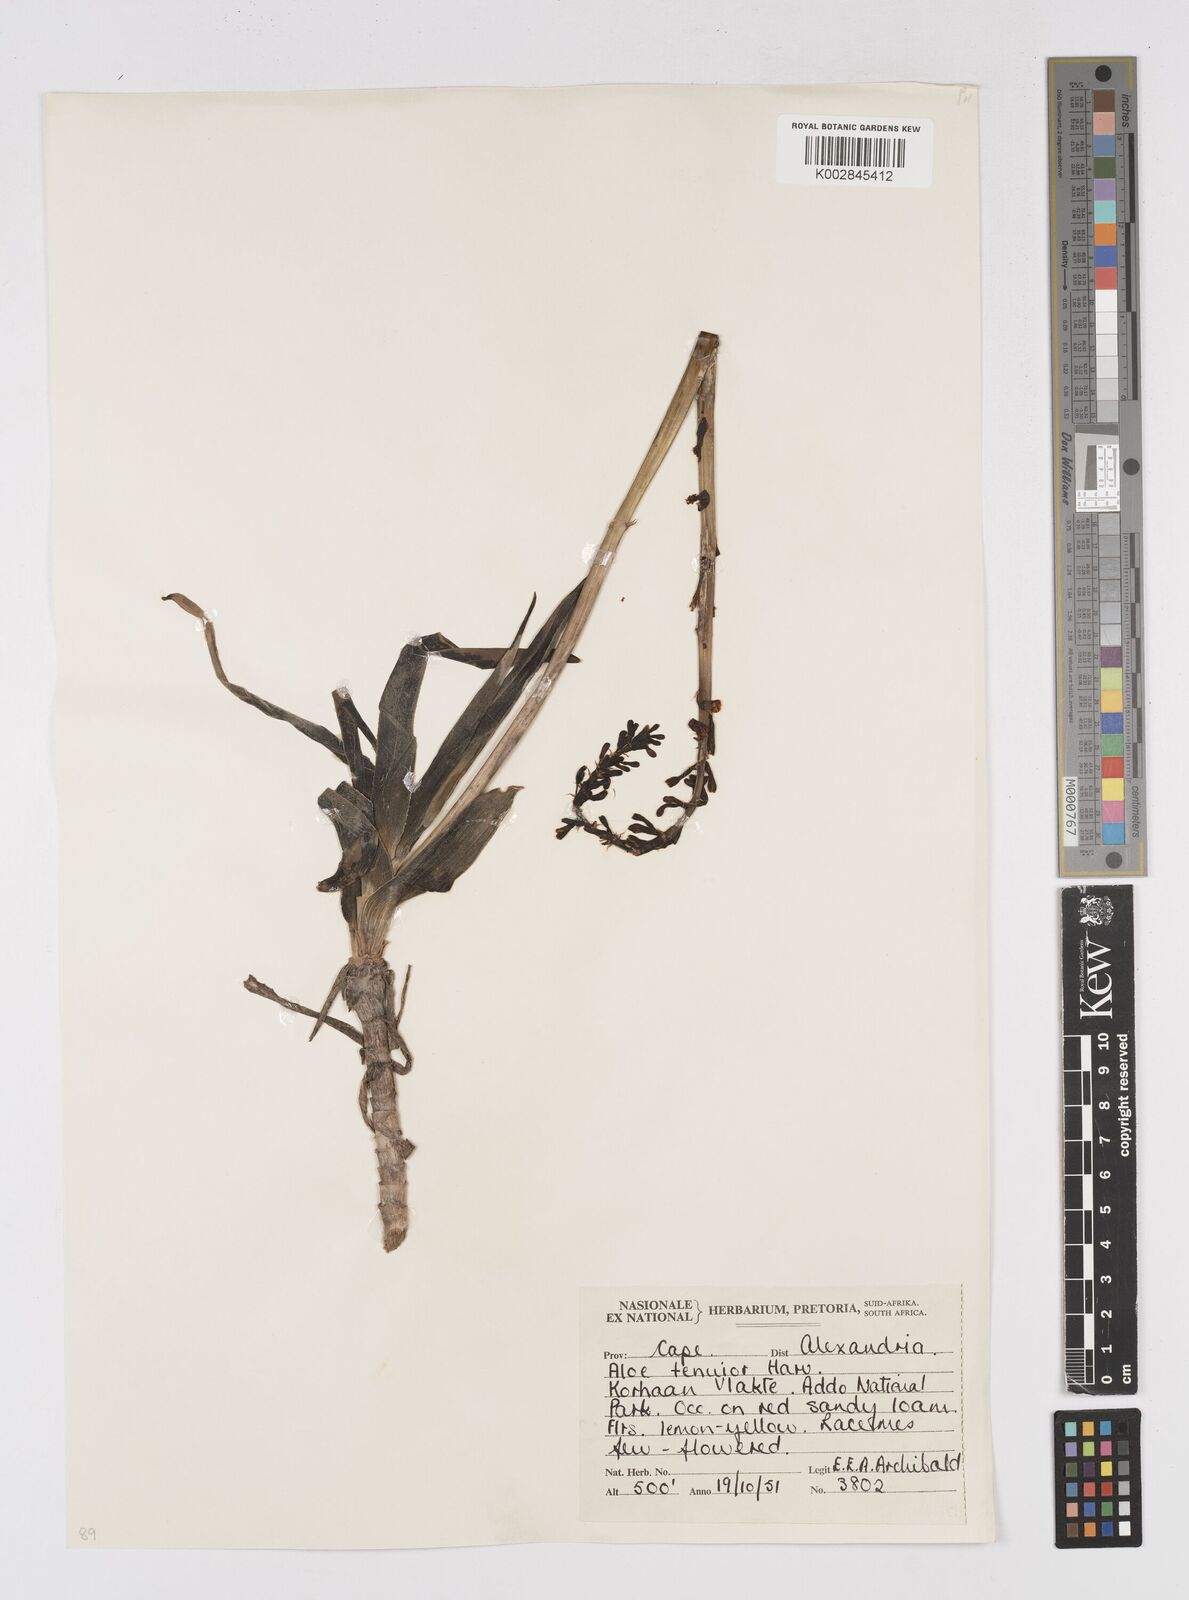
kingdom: Plantae
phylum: Tracheophyta
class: Liliopsida
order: Asparagales
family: Asphodelaceae
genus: Aloiampelos
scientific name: Aloiampelos tenuior
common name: Fence aloe
